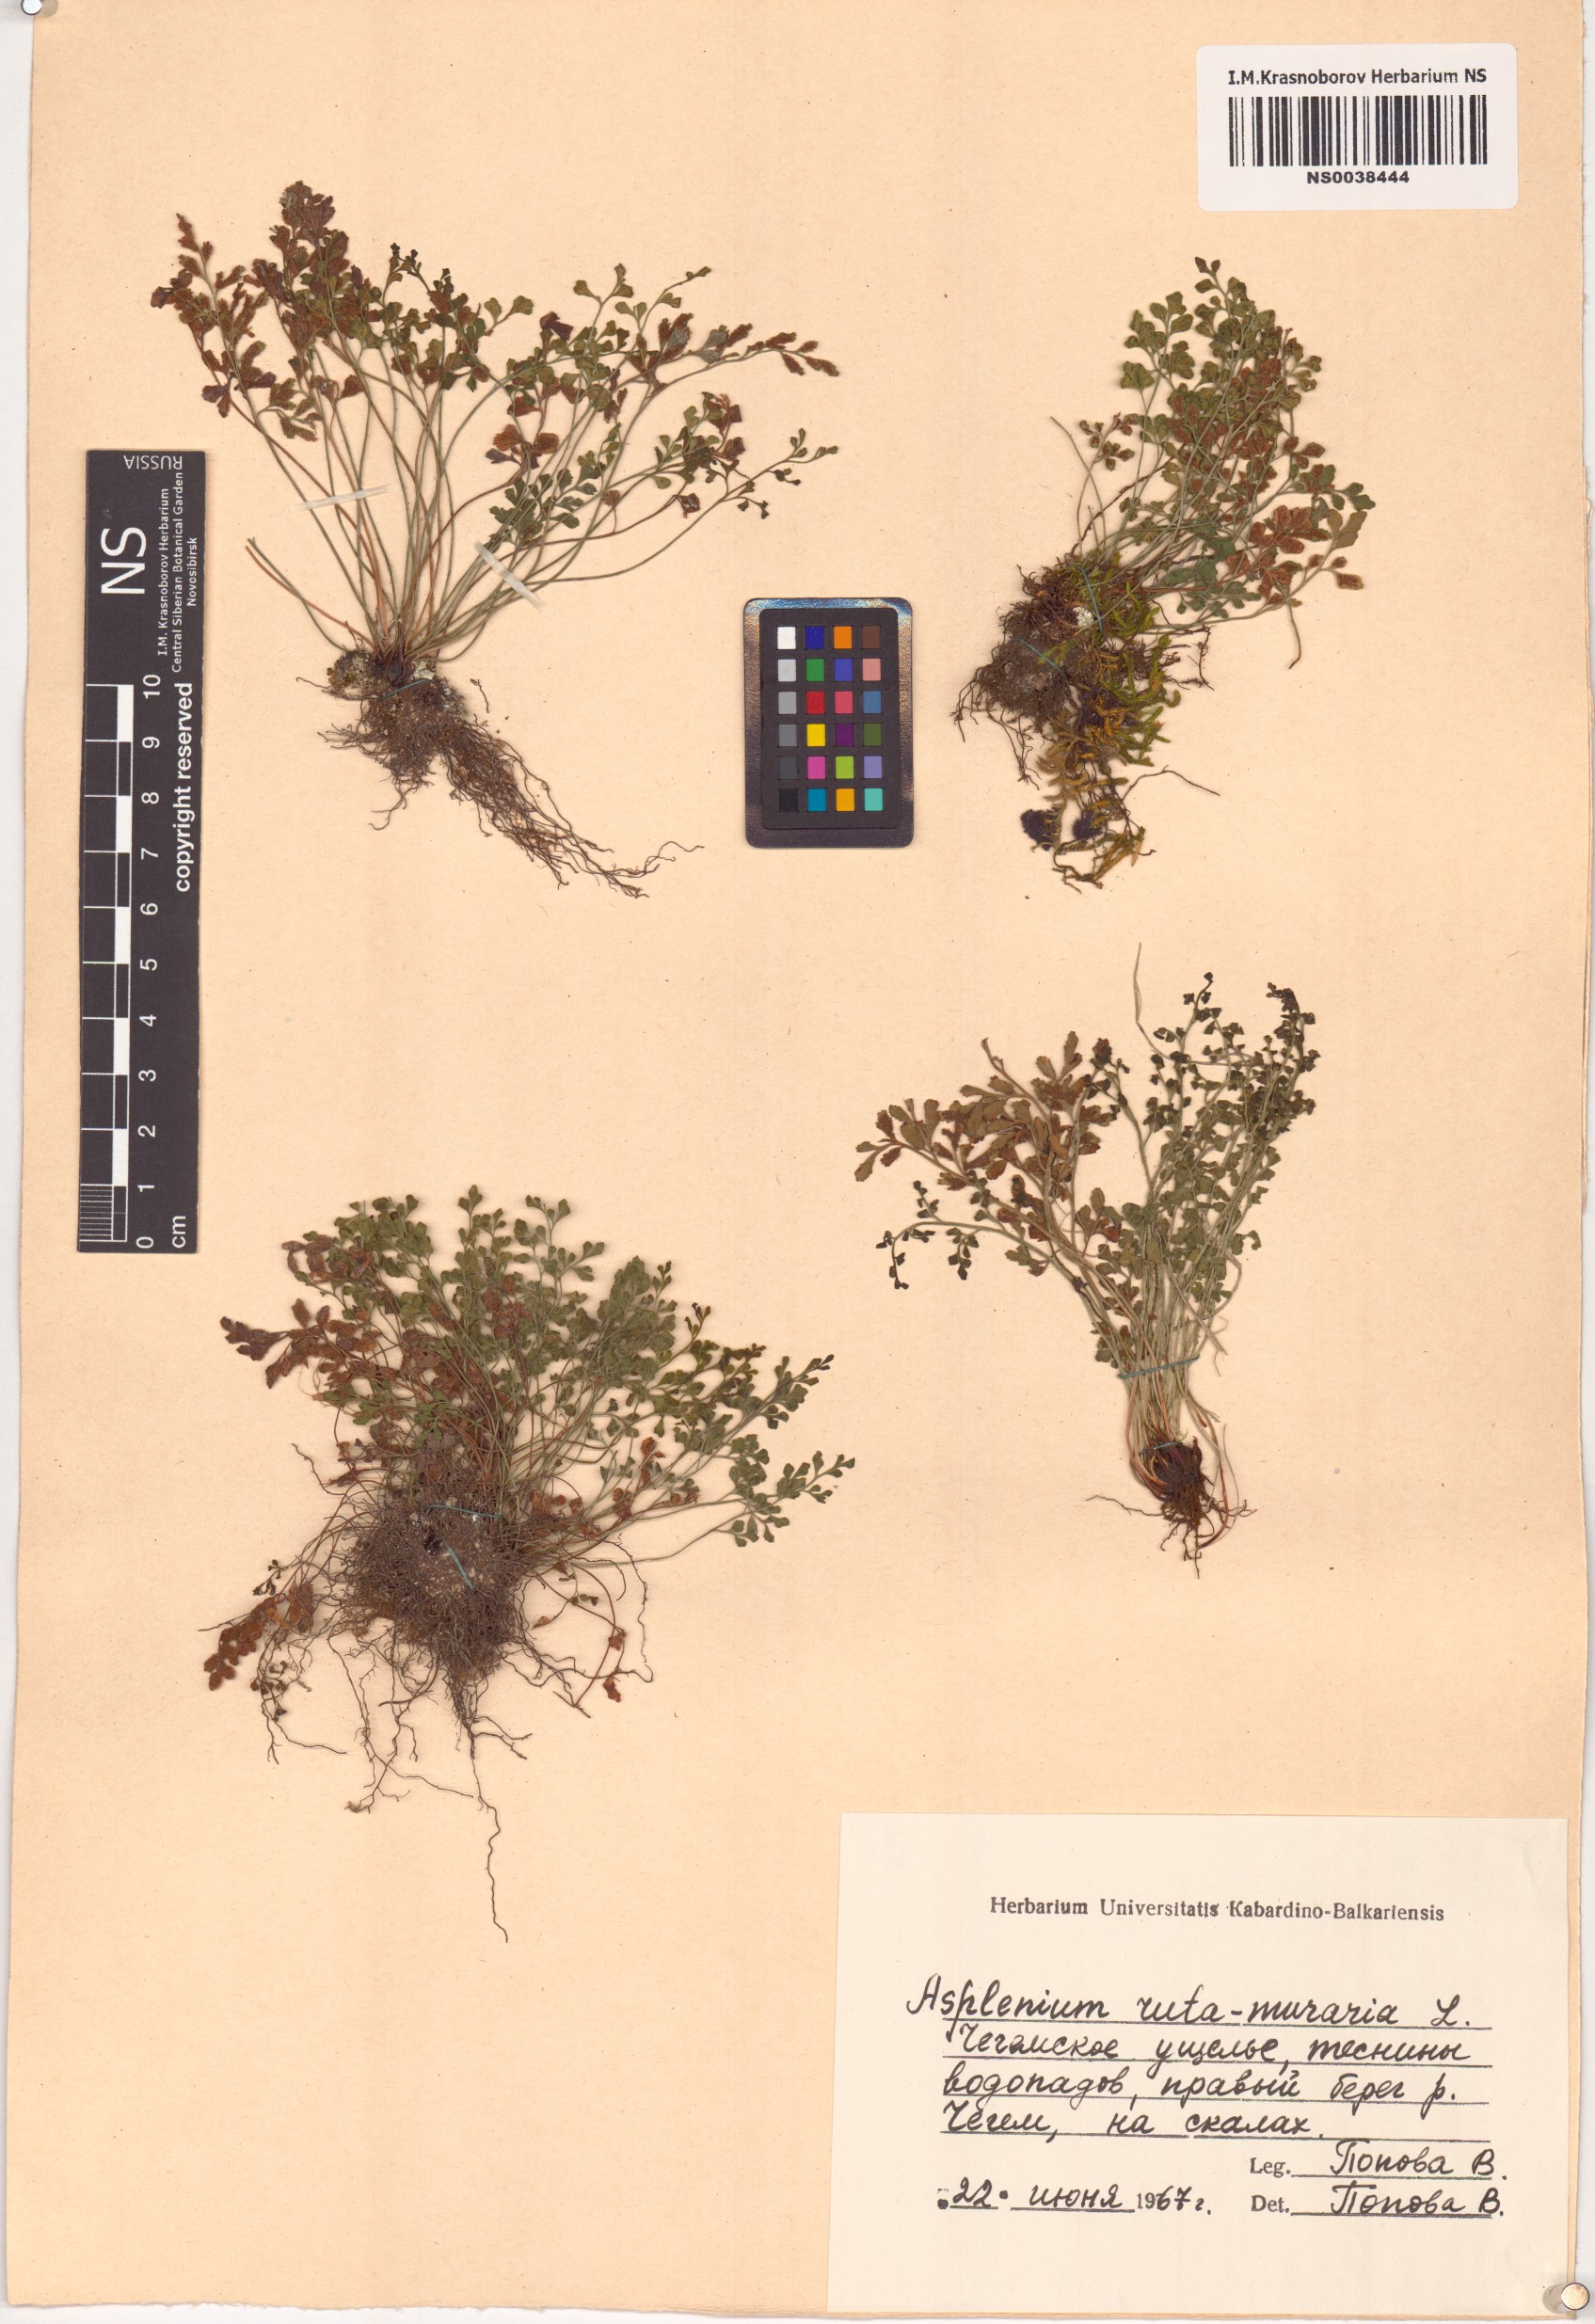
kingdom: Plantae
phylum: Tracheophyta
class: Polypodiopsida
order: Polypodiales
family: Aspleniaceae
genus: Asplenium
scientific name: Asplenium ruta-muraria
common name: Wall-rue
